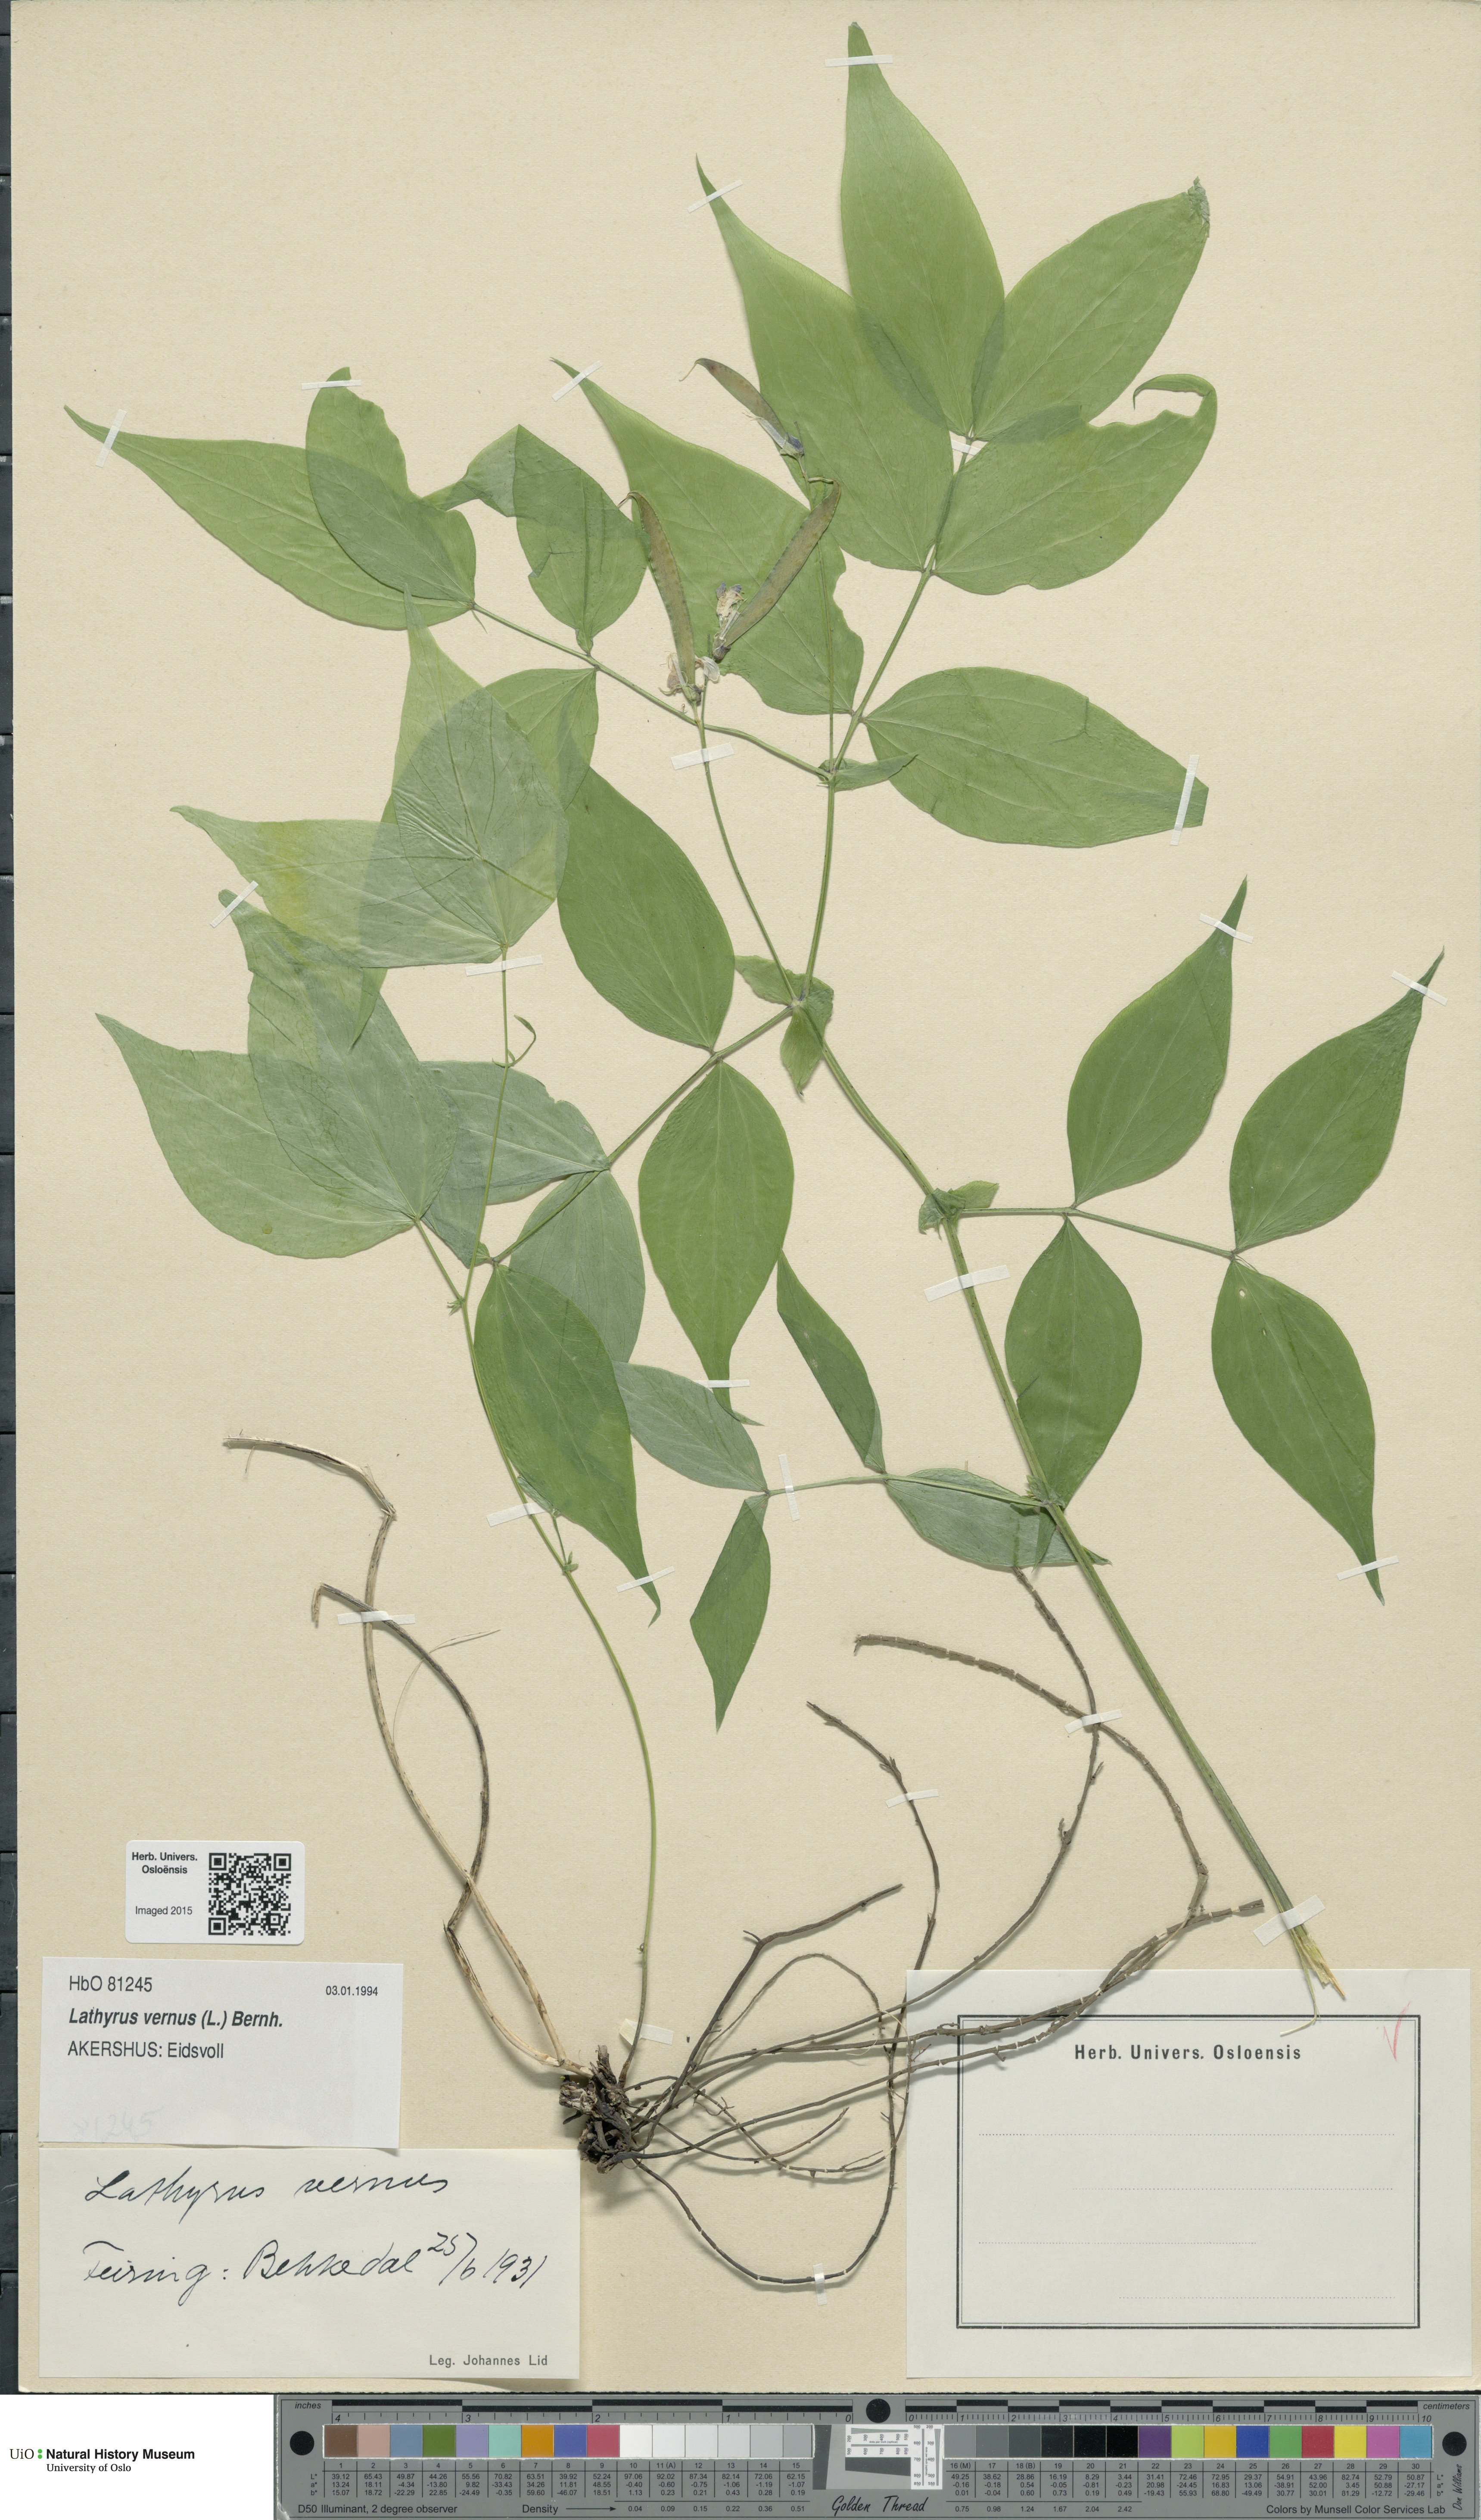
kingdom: Plantae
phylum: Tracheophyta
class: Magnoliopsida
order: Fabales
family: Fabaceae
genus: Lathyrus
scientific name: Lathyrus vernus
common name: Spring pea
